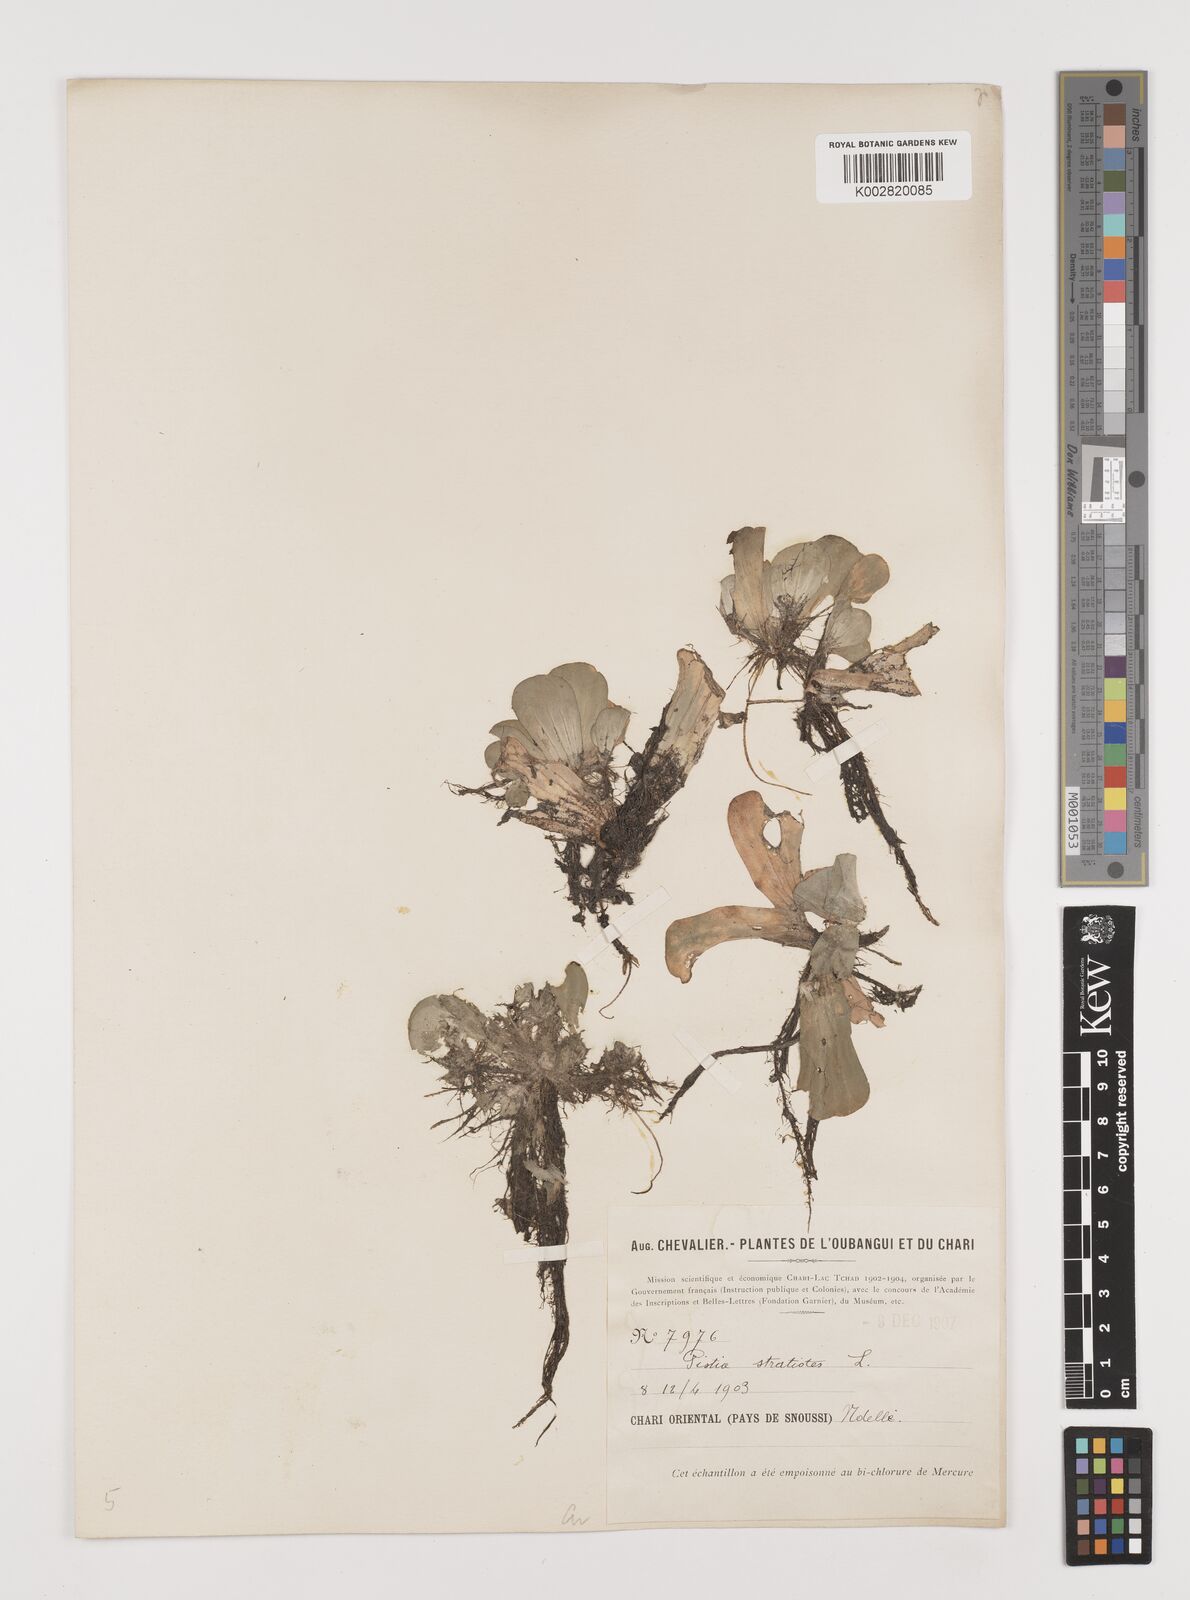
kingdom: Plantae
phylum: Tracheophyta
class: Liliopsida
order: Alismatales
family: Araceae
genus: Pistia
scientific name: Pistia stratiotes
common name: Water lettuce
